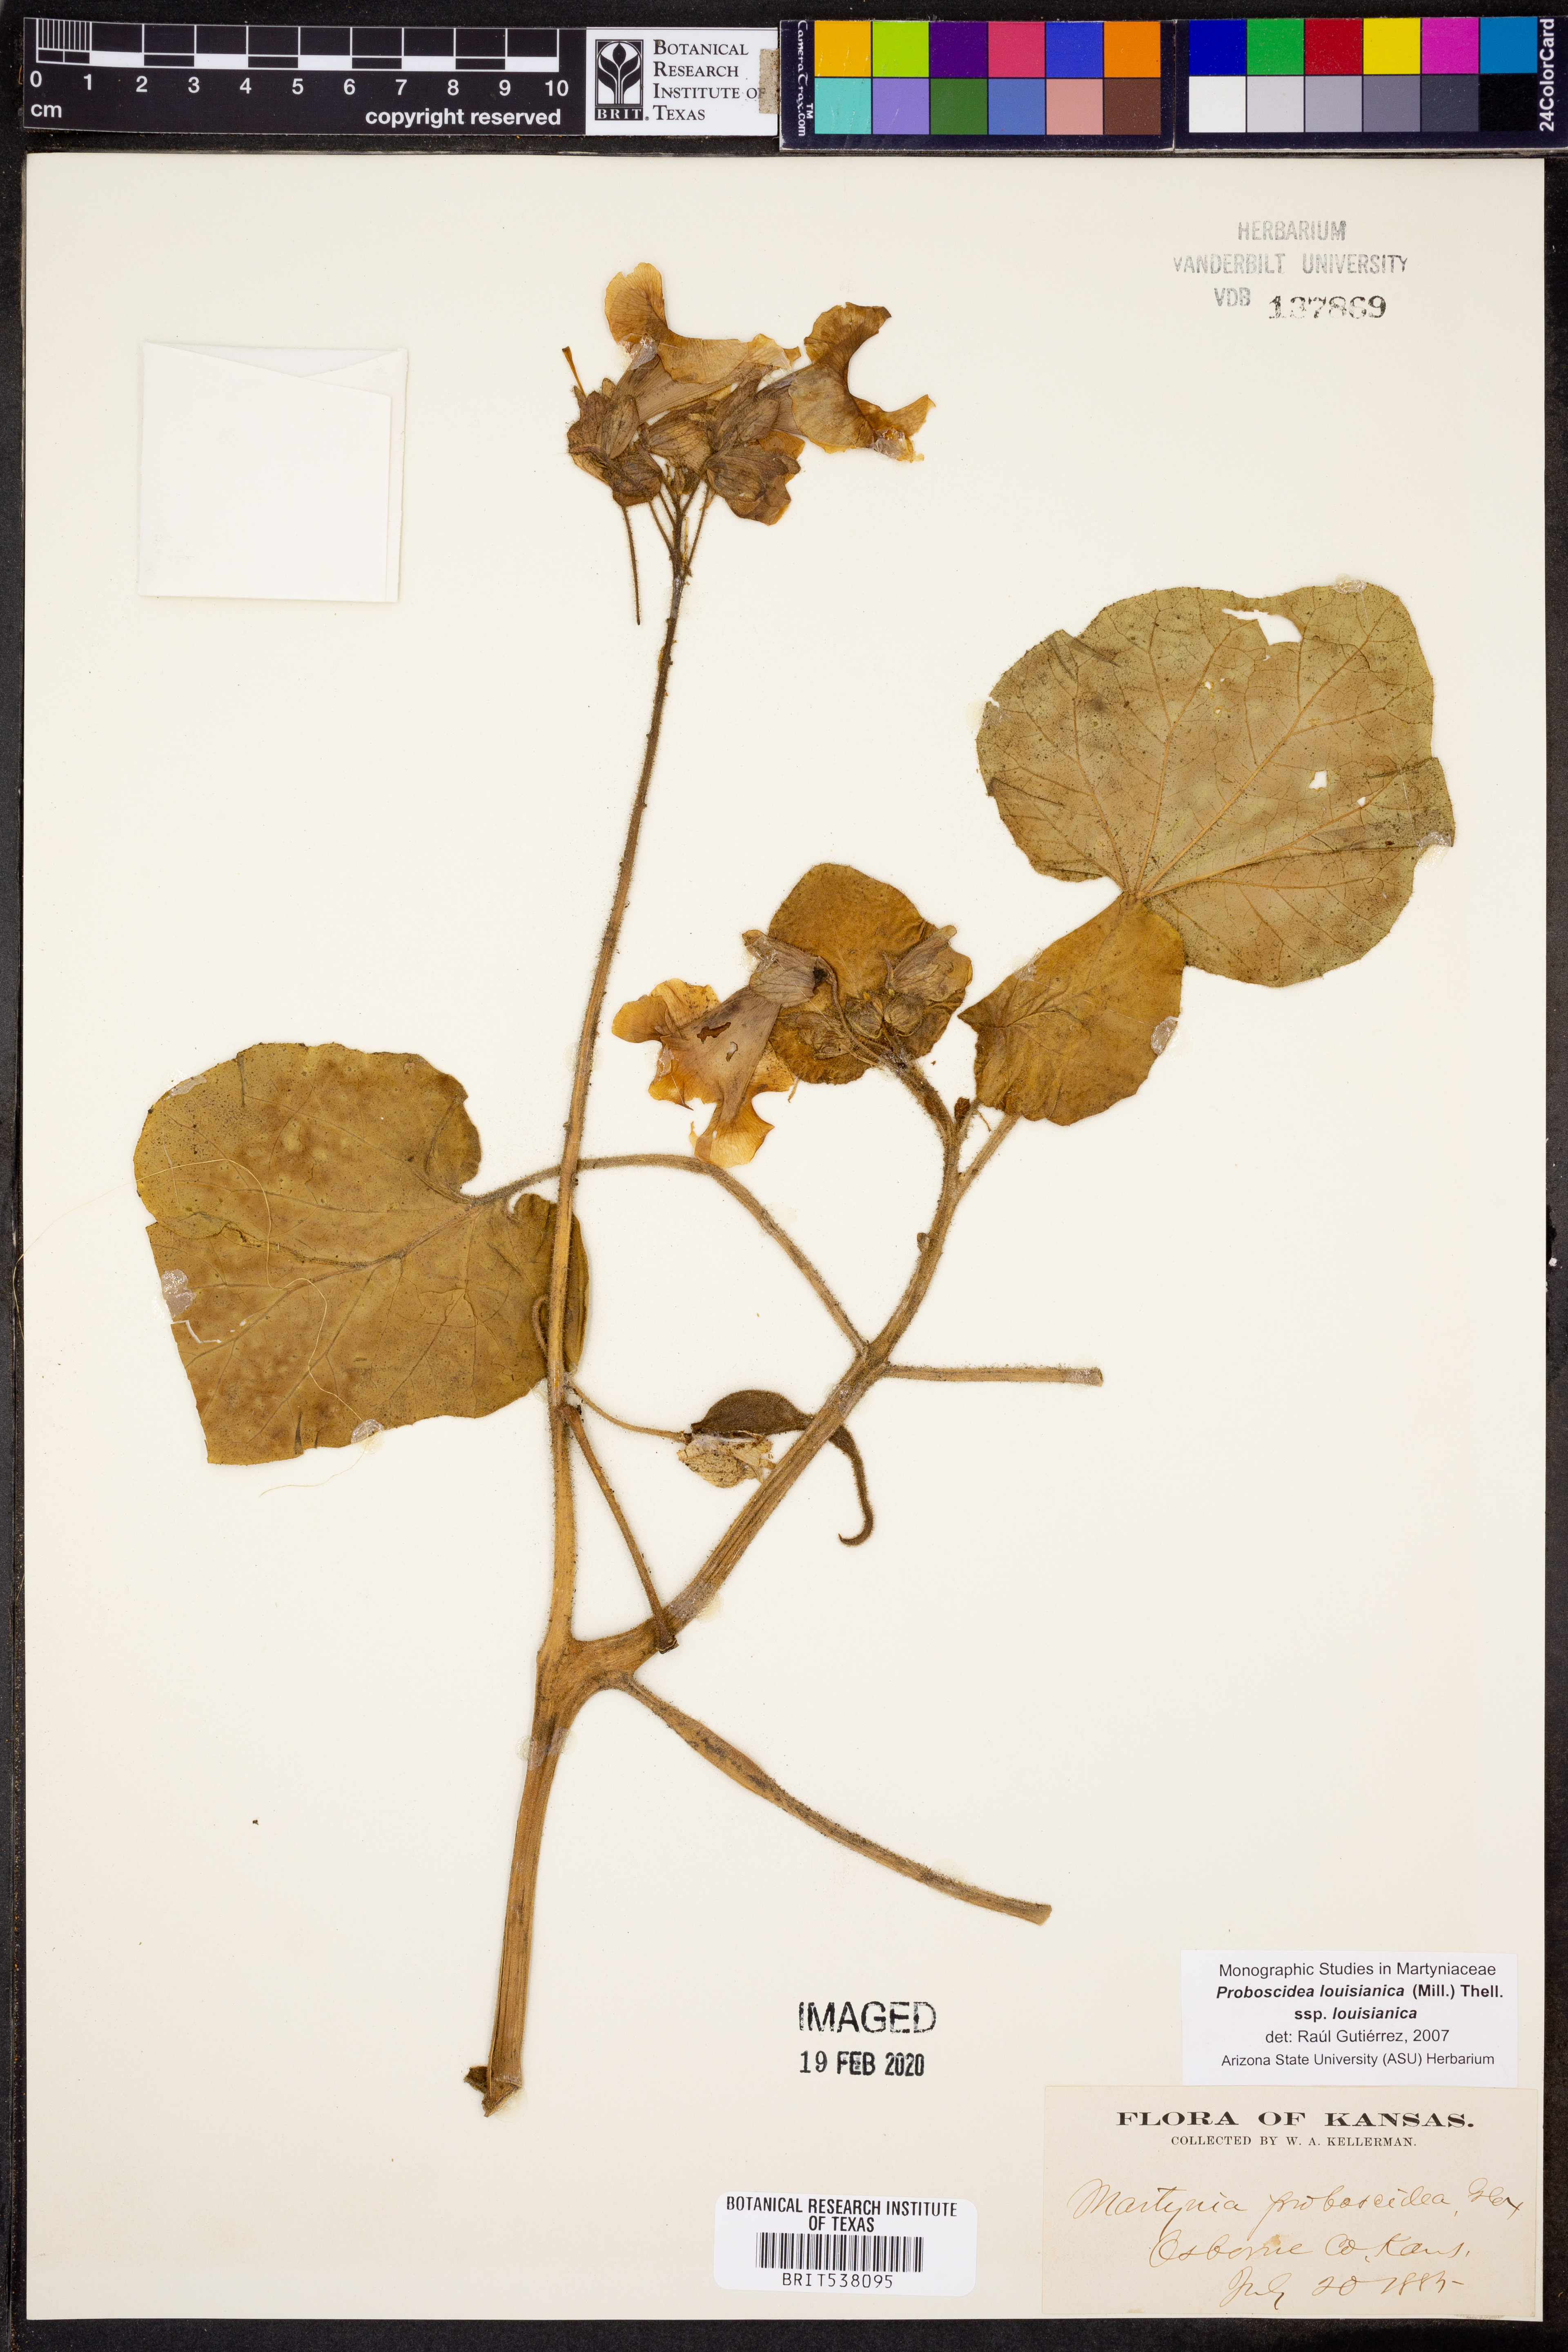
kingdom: Plantae
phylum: Tracheophyta
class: Magnoliopsida
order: Lamiales
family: Martyniaceae
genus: Proboscidea
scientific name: Proboscidea louisianica
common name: Elephant tusks
